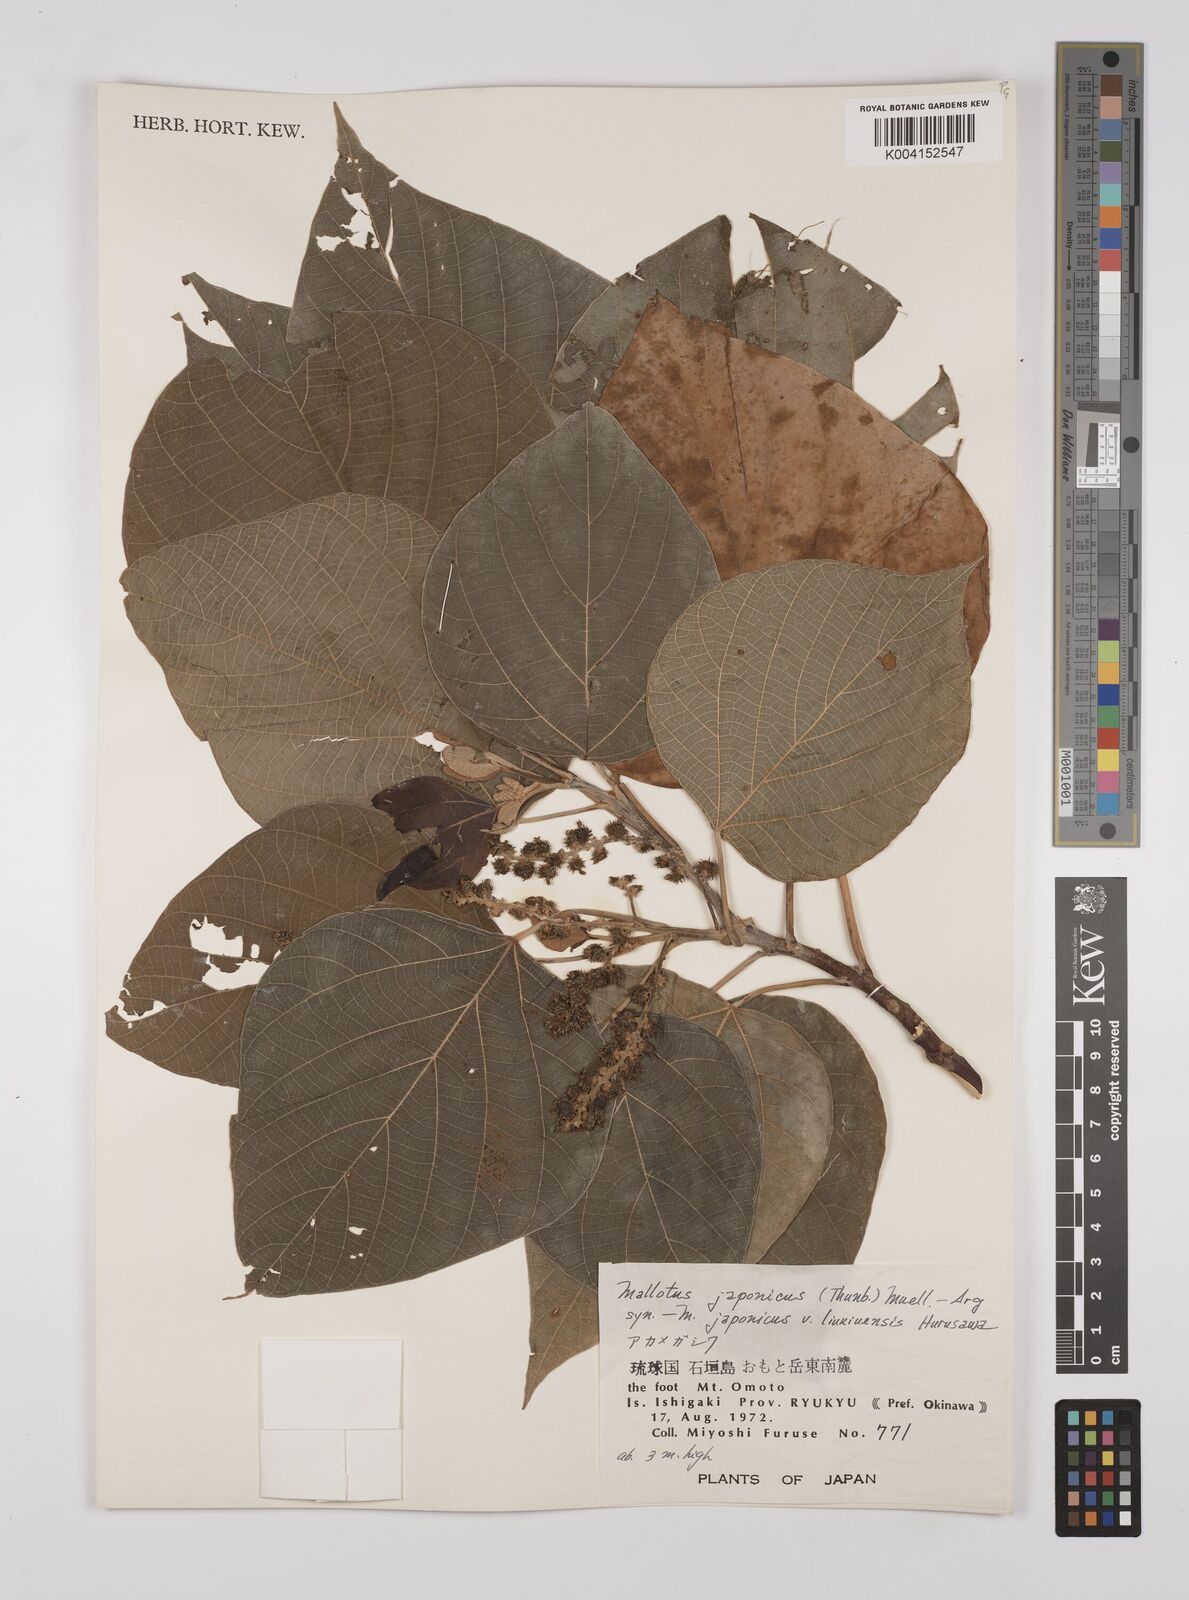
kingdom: Plantae
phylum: Tracheophyta
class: Magnoliopsida
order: Malpighiales
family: Euphorbiaceae
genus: Mallotus
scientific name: Mallotus japonicus
